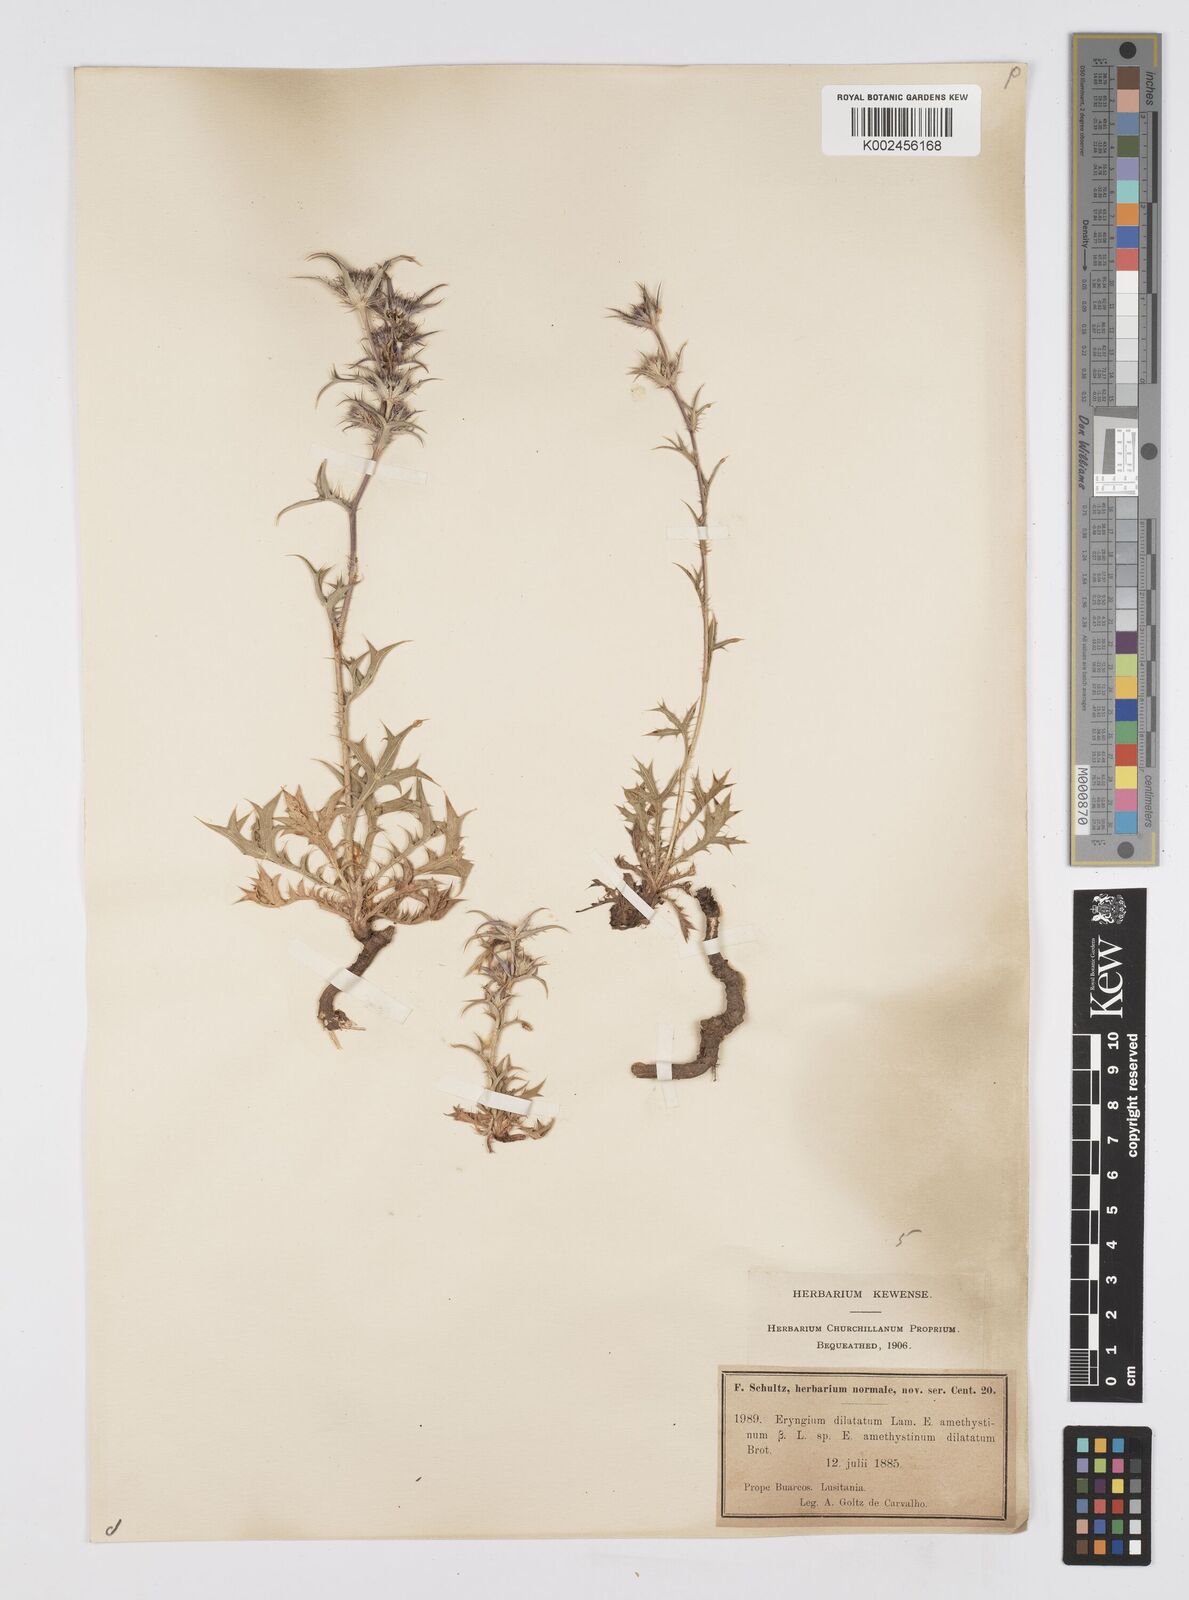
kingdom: Plantae
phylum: Tracheophyta
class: Magnoliopsida
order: Apiales
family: Apiaceae
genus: Eryngium
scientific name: Eryngium dilatatum
